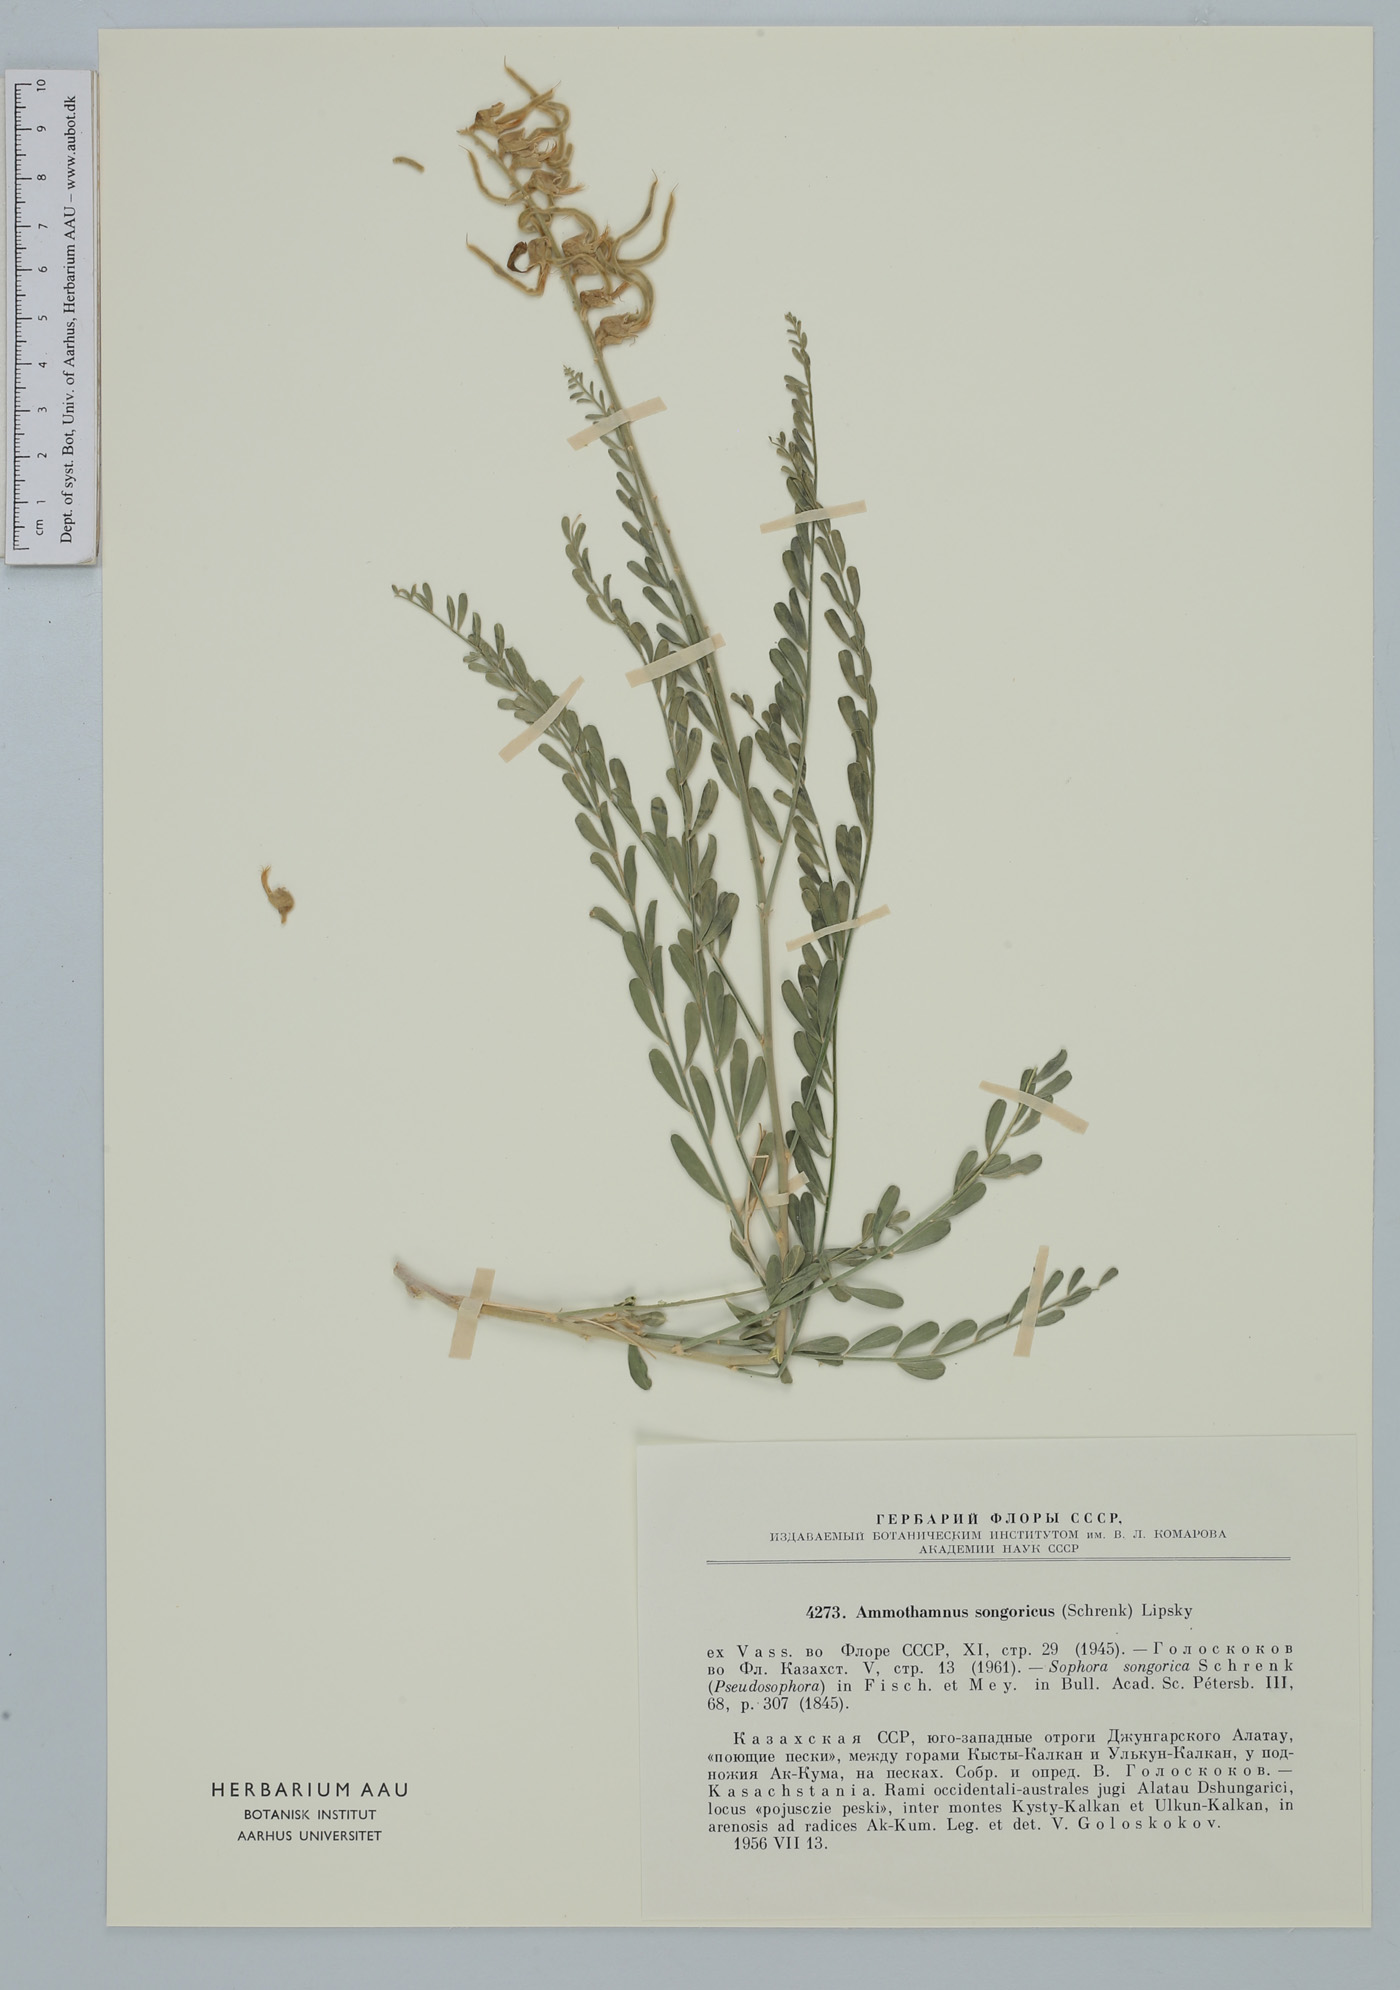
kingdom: Plantae
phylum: Tracheophyta
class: Magnoliopsida
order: Fabales
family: Fabaceae
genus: Sophora
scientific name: Sophora songorica
